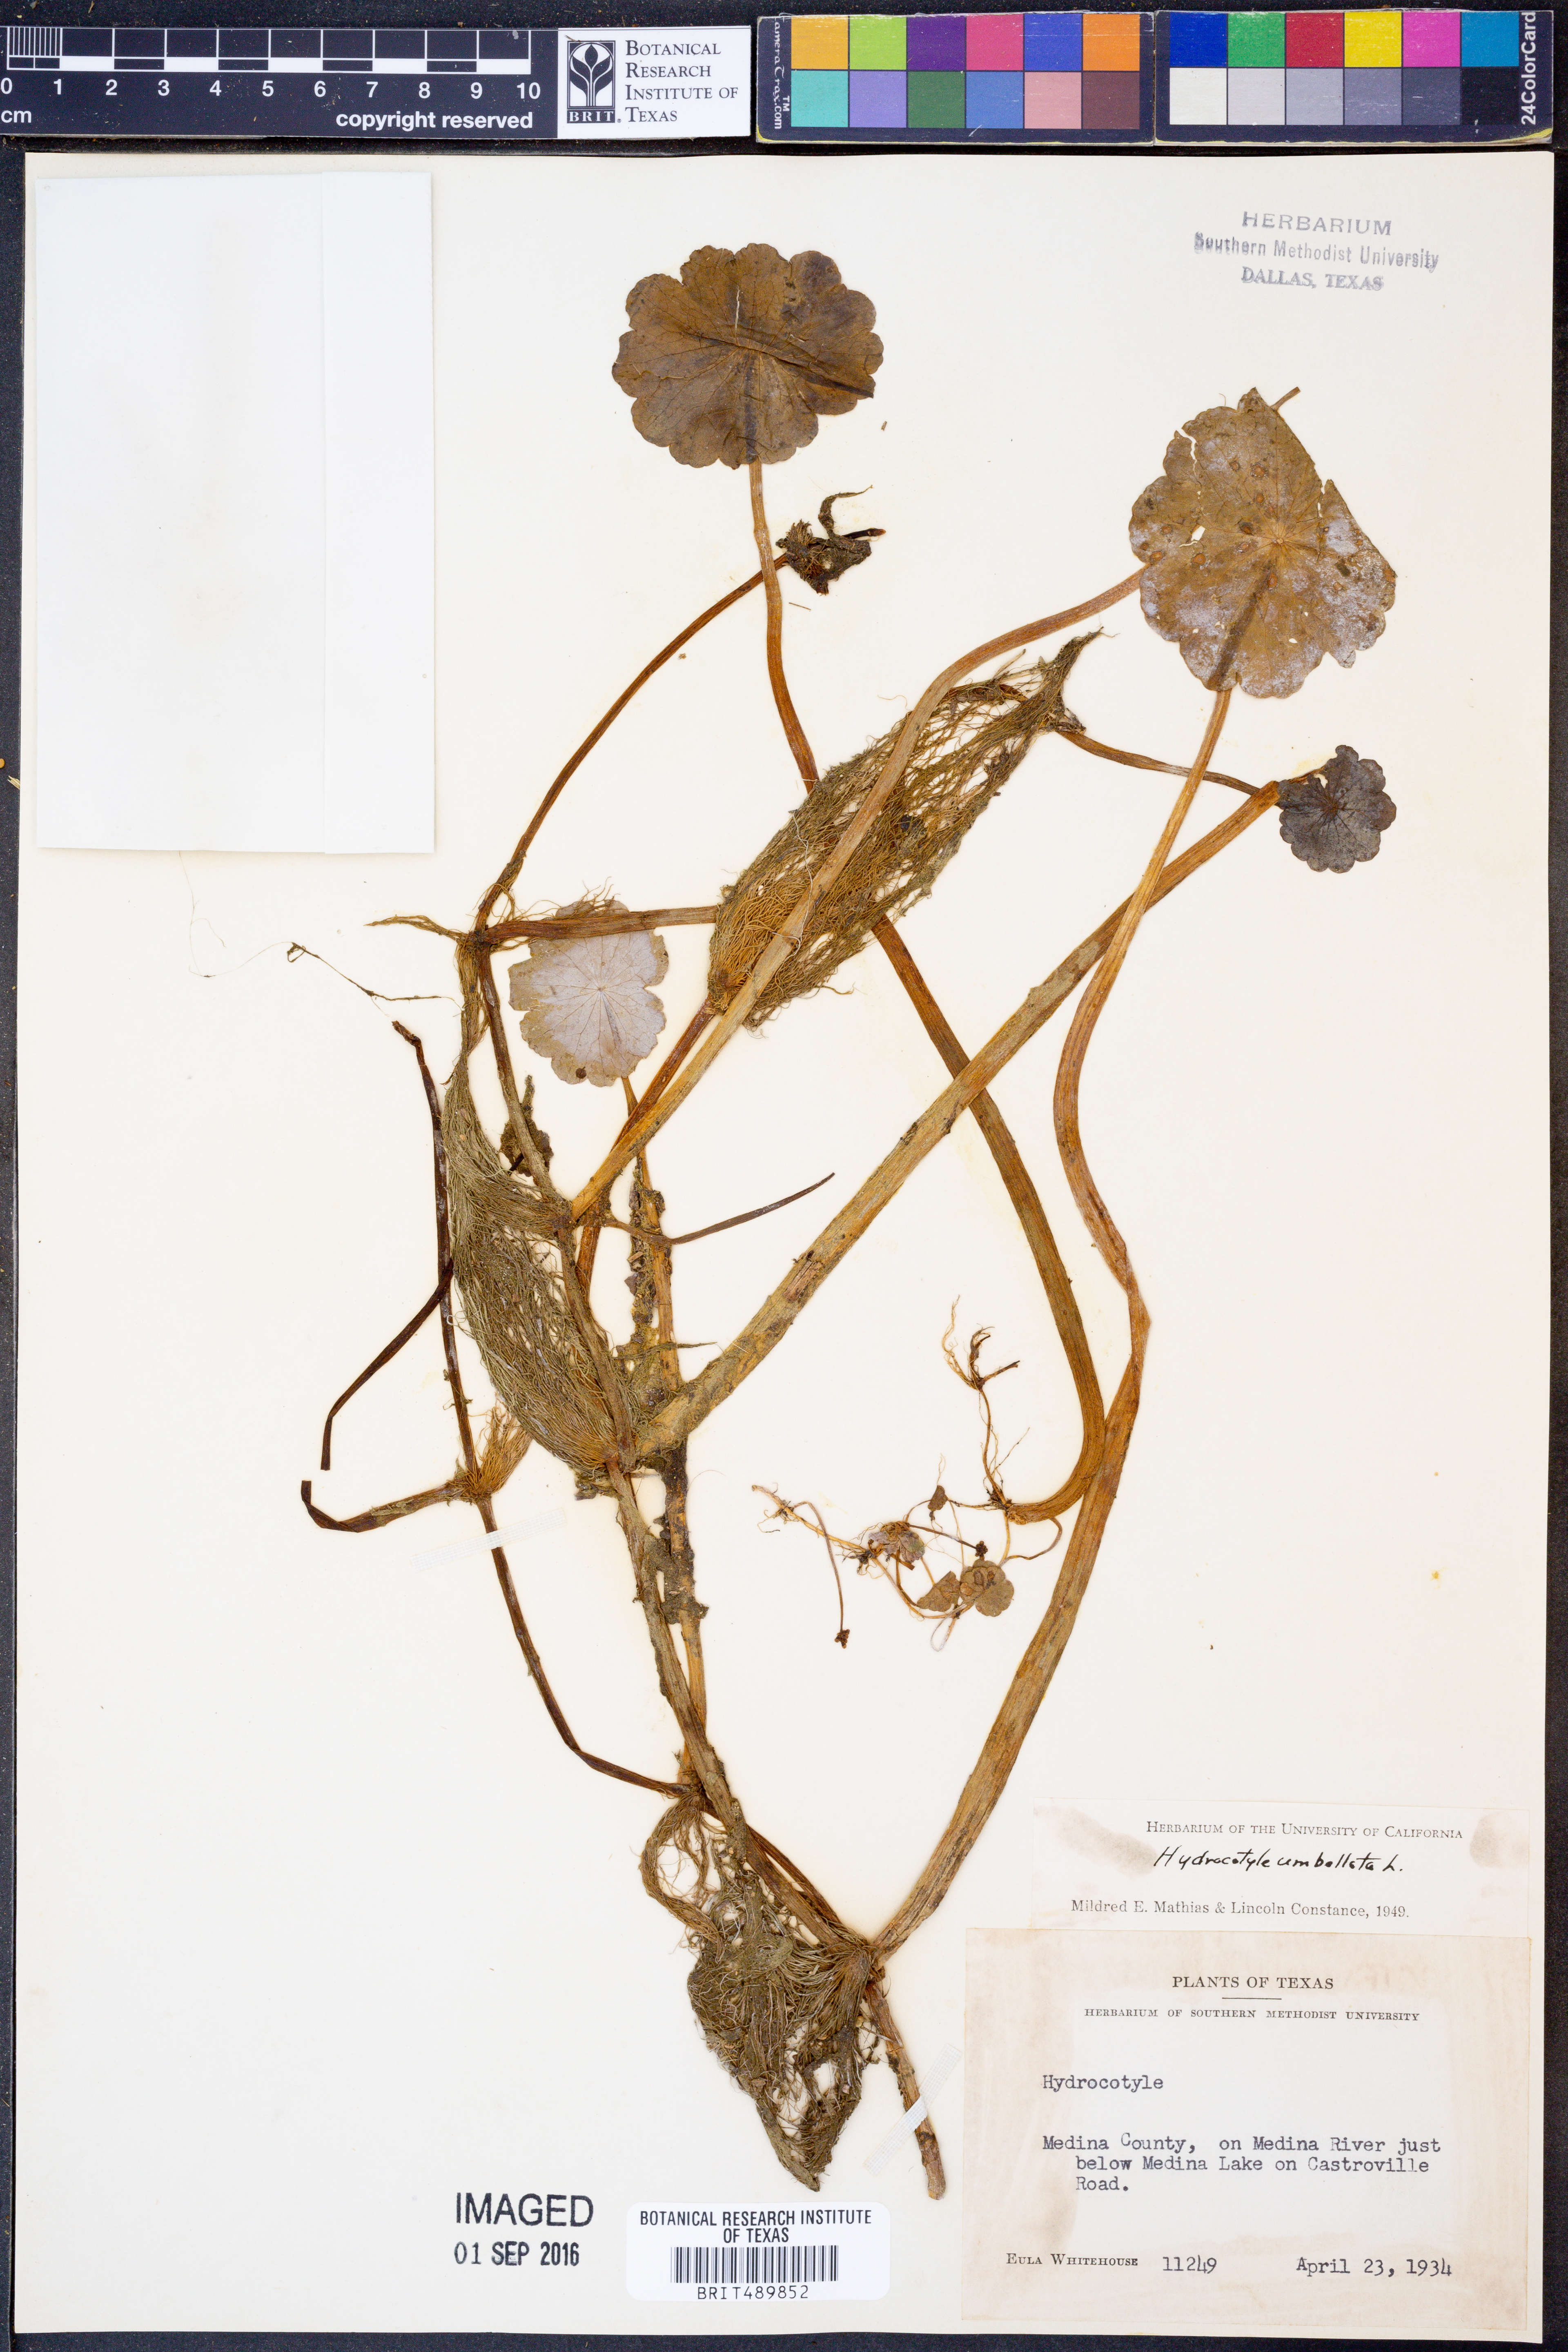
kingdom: Plantae
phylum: Tracheophyta
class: Magnoliopsida
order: Apiales
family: Araliaceae
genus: Hydrocotyle
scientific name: Hydrocotyle umbellata
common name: Water pennywort
